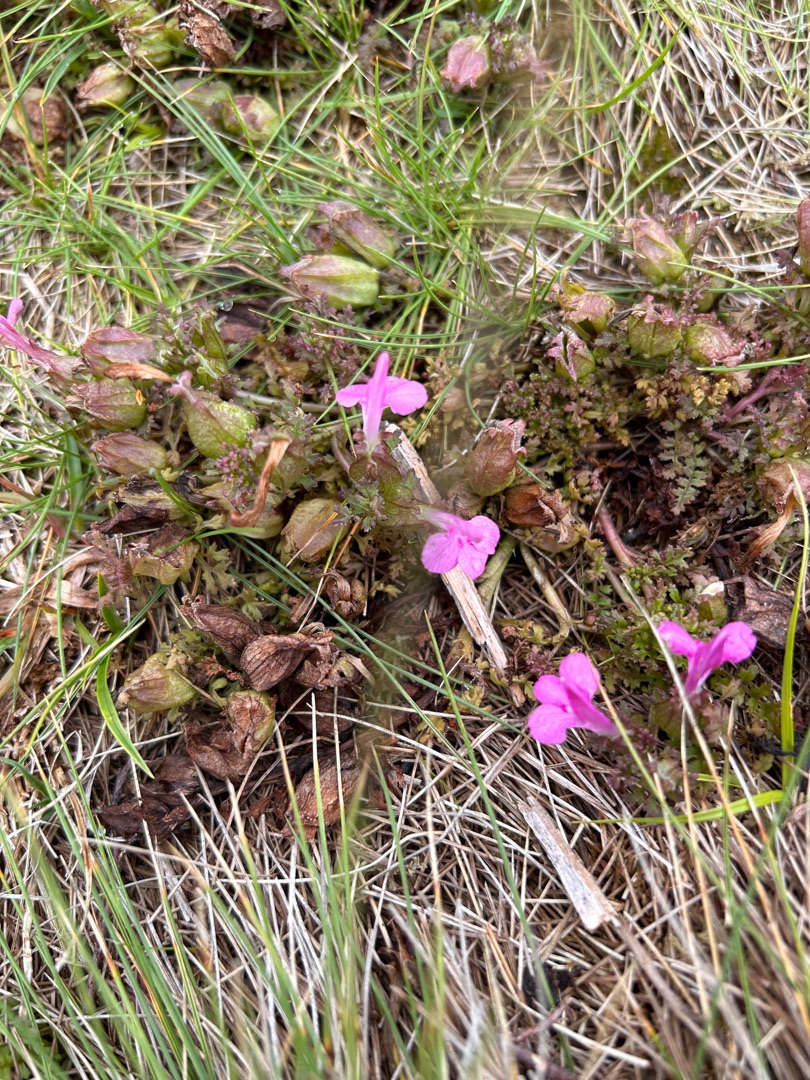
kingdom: Plantae
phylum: Tracheophyta
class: Magnoliopsida
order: Lamiales
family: Orobanchaceae
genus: Pedicularis
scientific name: Pedicularis palustris
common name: Eng-troldurt
